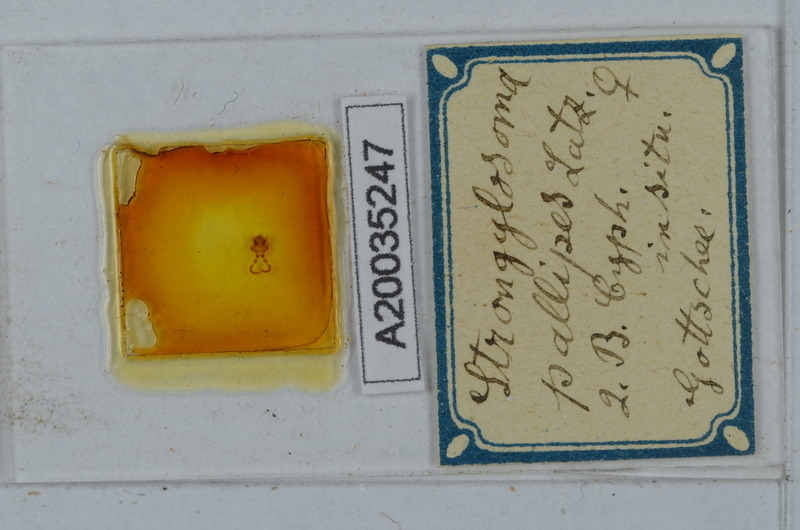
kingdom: Animalia
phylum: Arthropoda
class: Diplopoda
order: Polydesmida
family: Paradoxosomatidae
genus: Strongylosoma
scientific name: Strongylosoma stigmatosus
